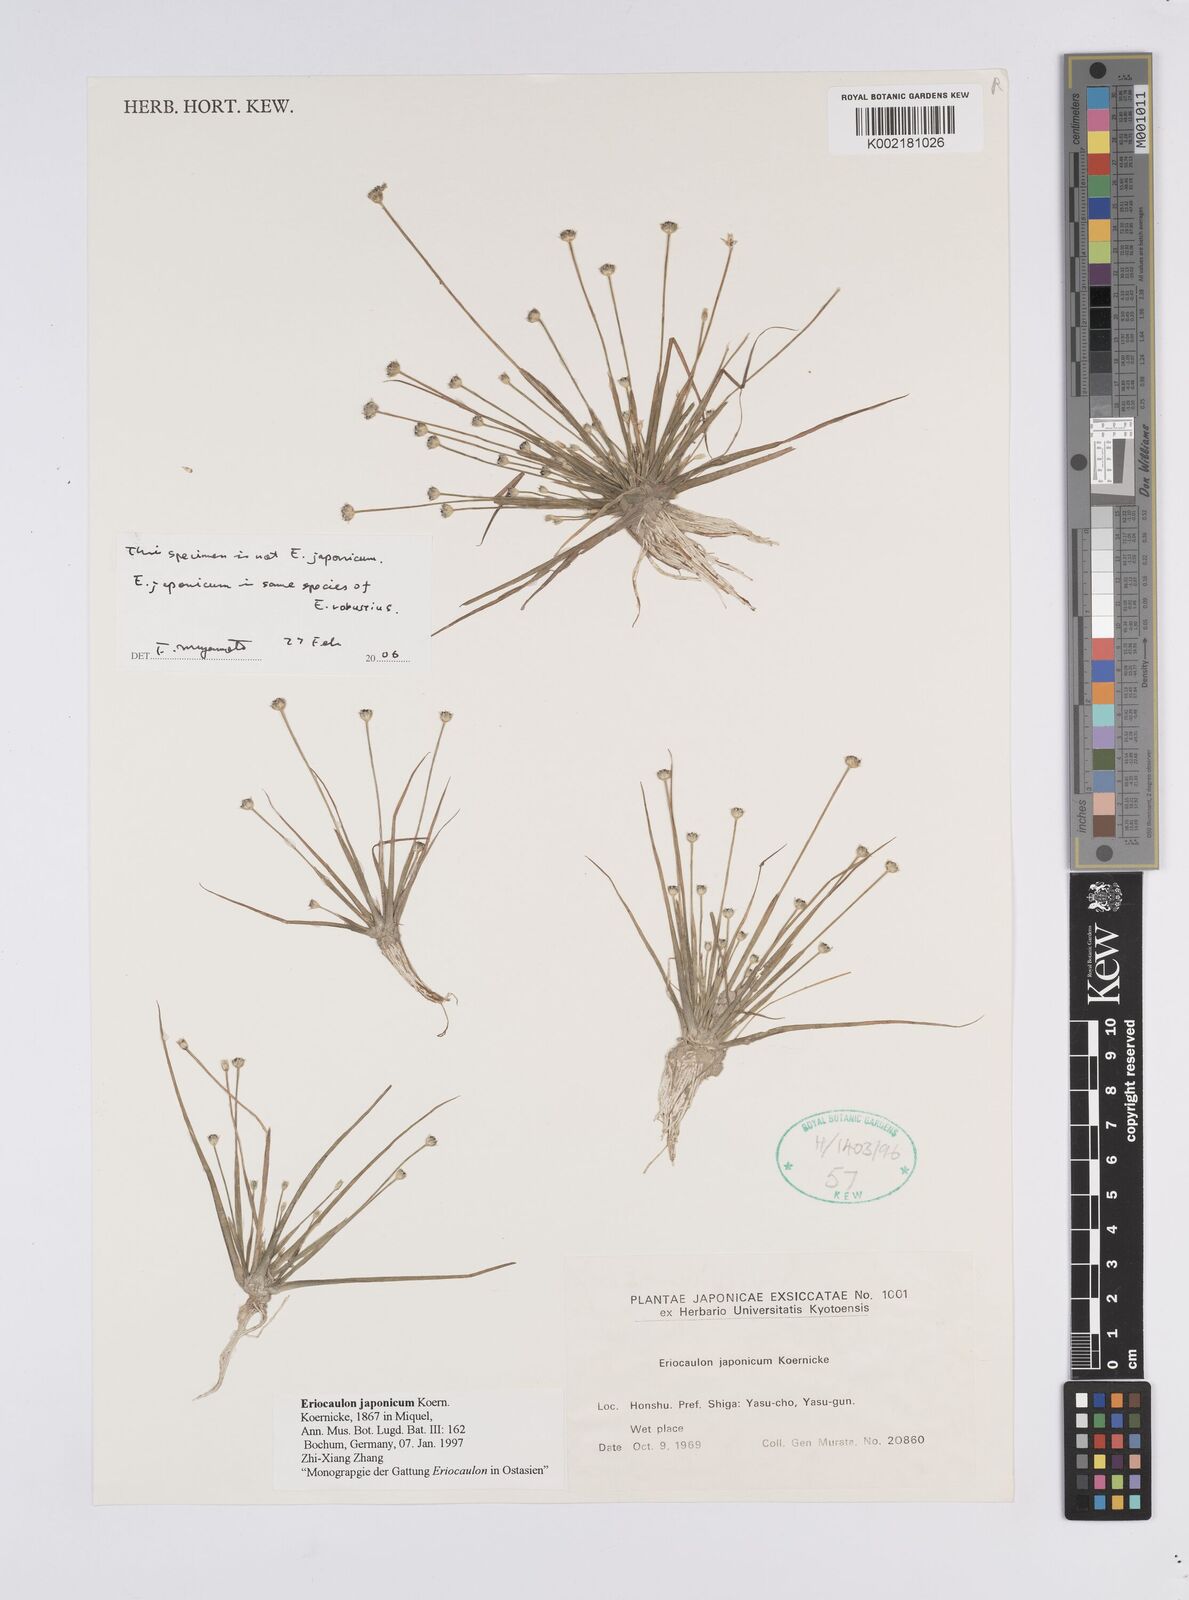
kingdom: Plantae
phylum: Tracheophyta
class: Liliopsida
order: Poales
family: Eriocaulaceae
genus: Eriocaulon
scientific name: Eriocaulon japonicum
